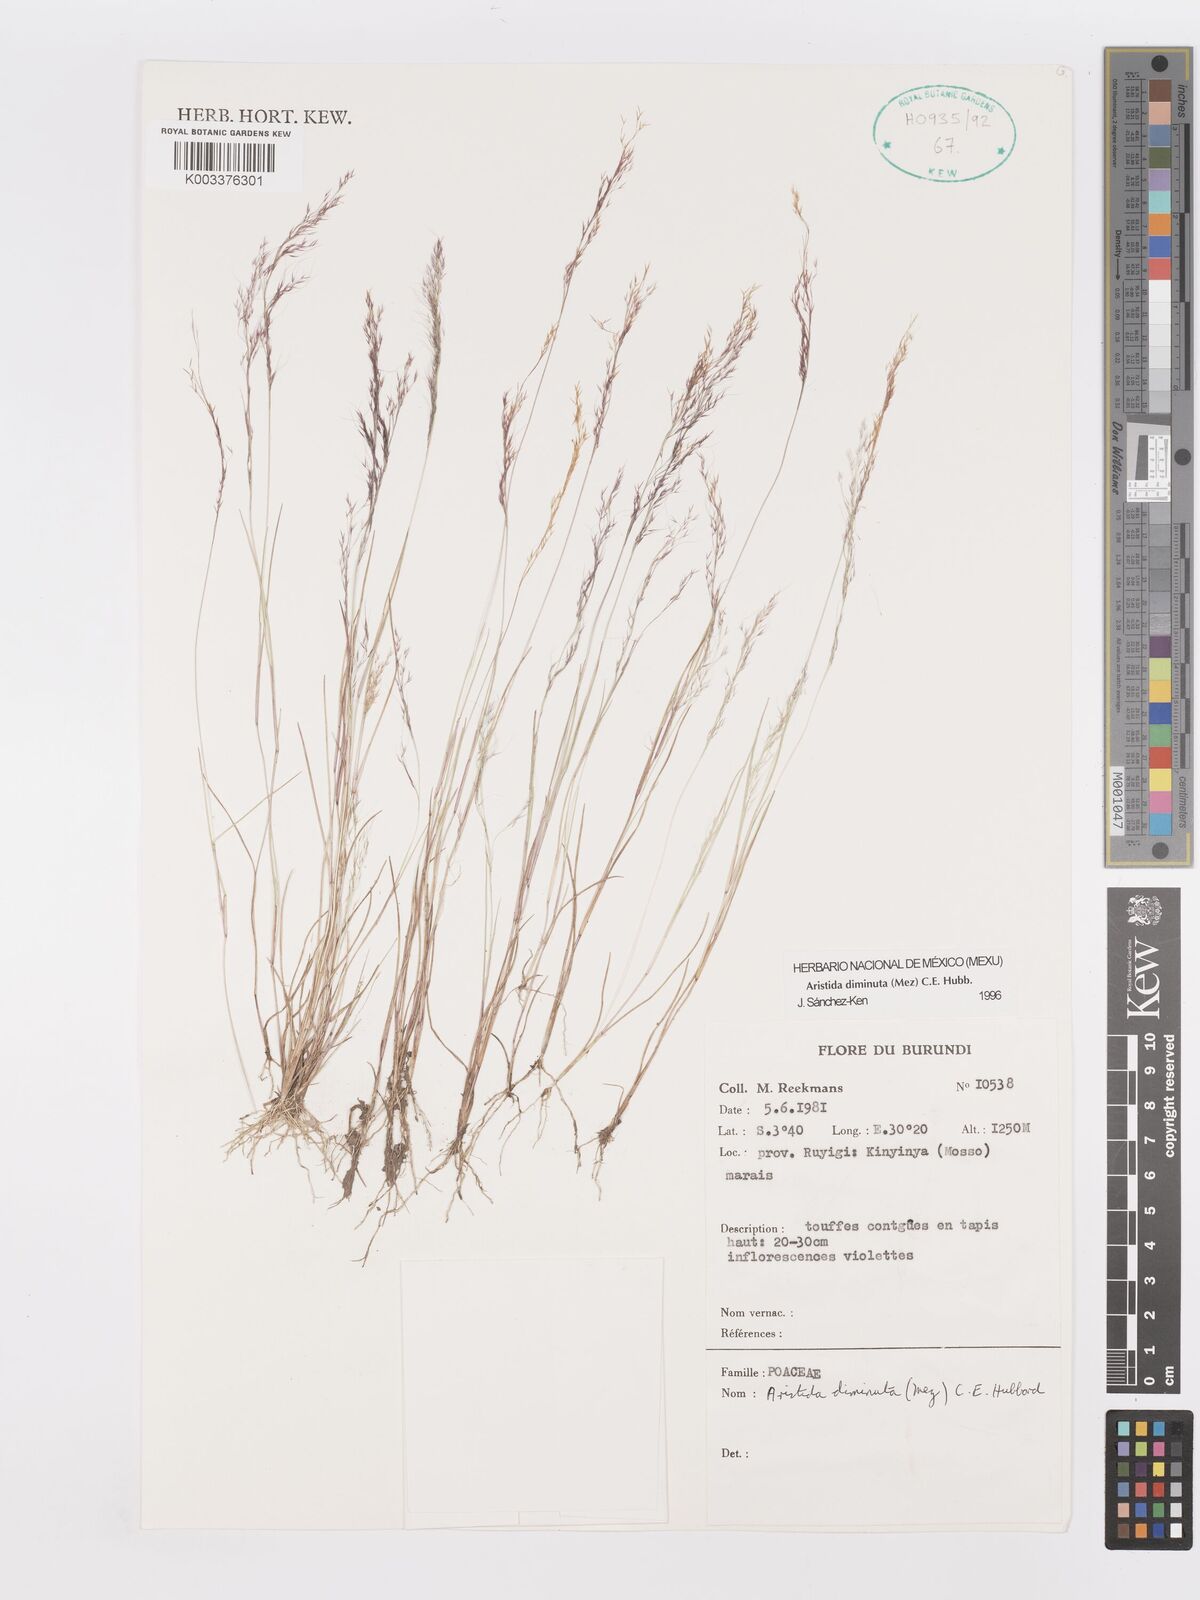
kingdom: Plantae
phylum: Tracheophyta
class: Liliopsida
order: Poales
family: Poaceae
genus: Aristida
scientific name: Aristida diminuta
